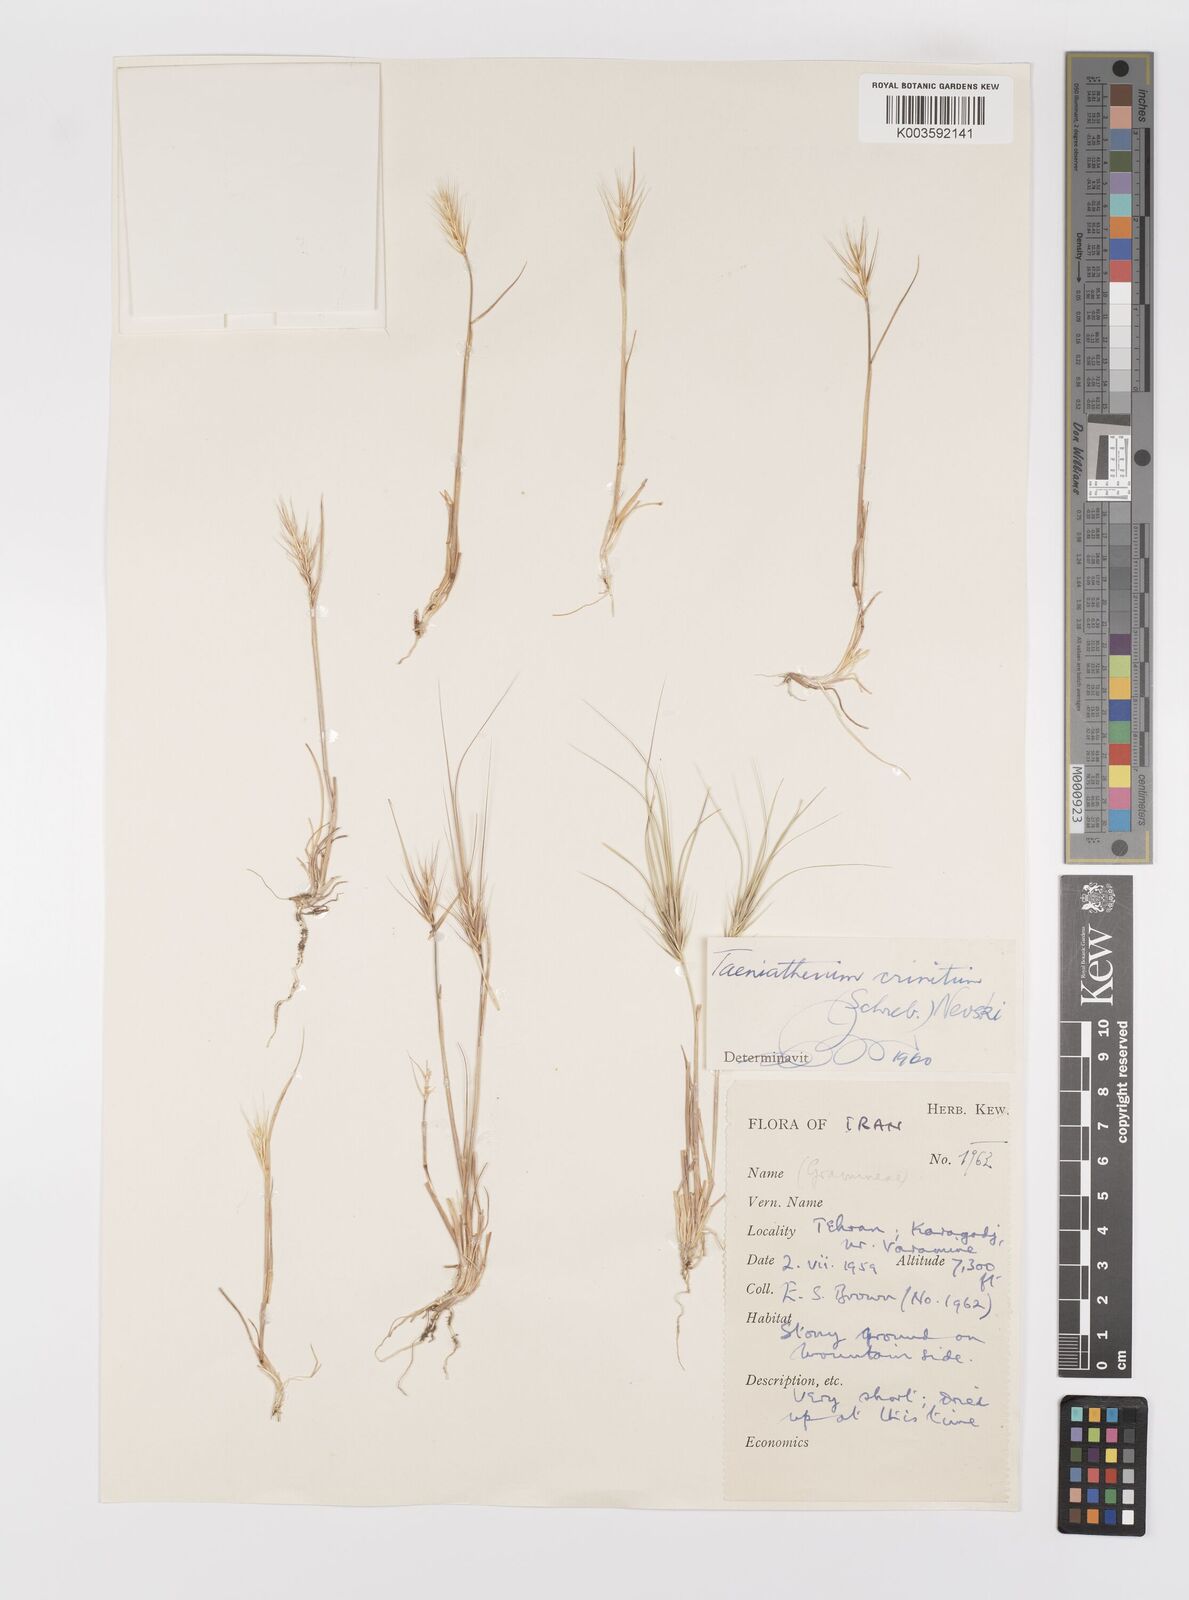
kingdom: Plantae
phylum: Tracheophyta
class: Liliopsida
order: Poales
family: Poaceae
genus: Taeniatherum
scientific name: Taeniatherum caput-medusae
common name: Medusahead
